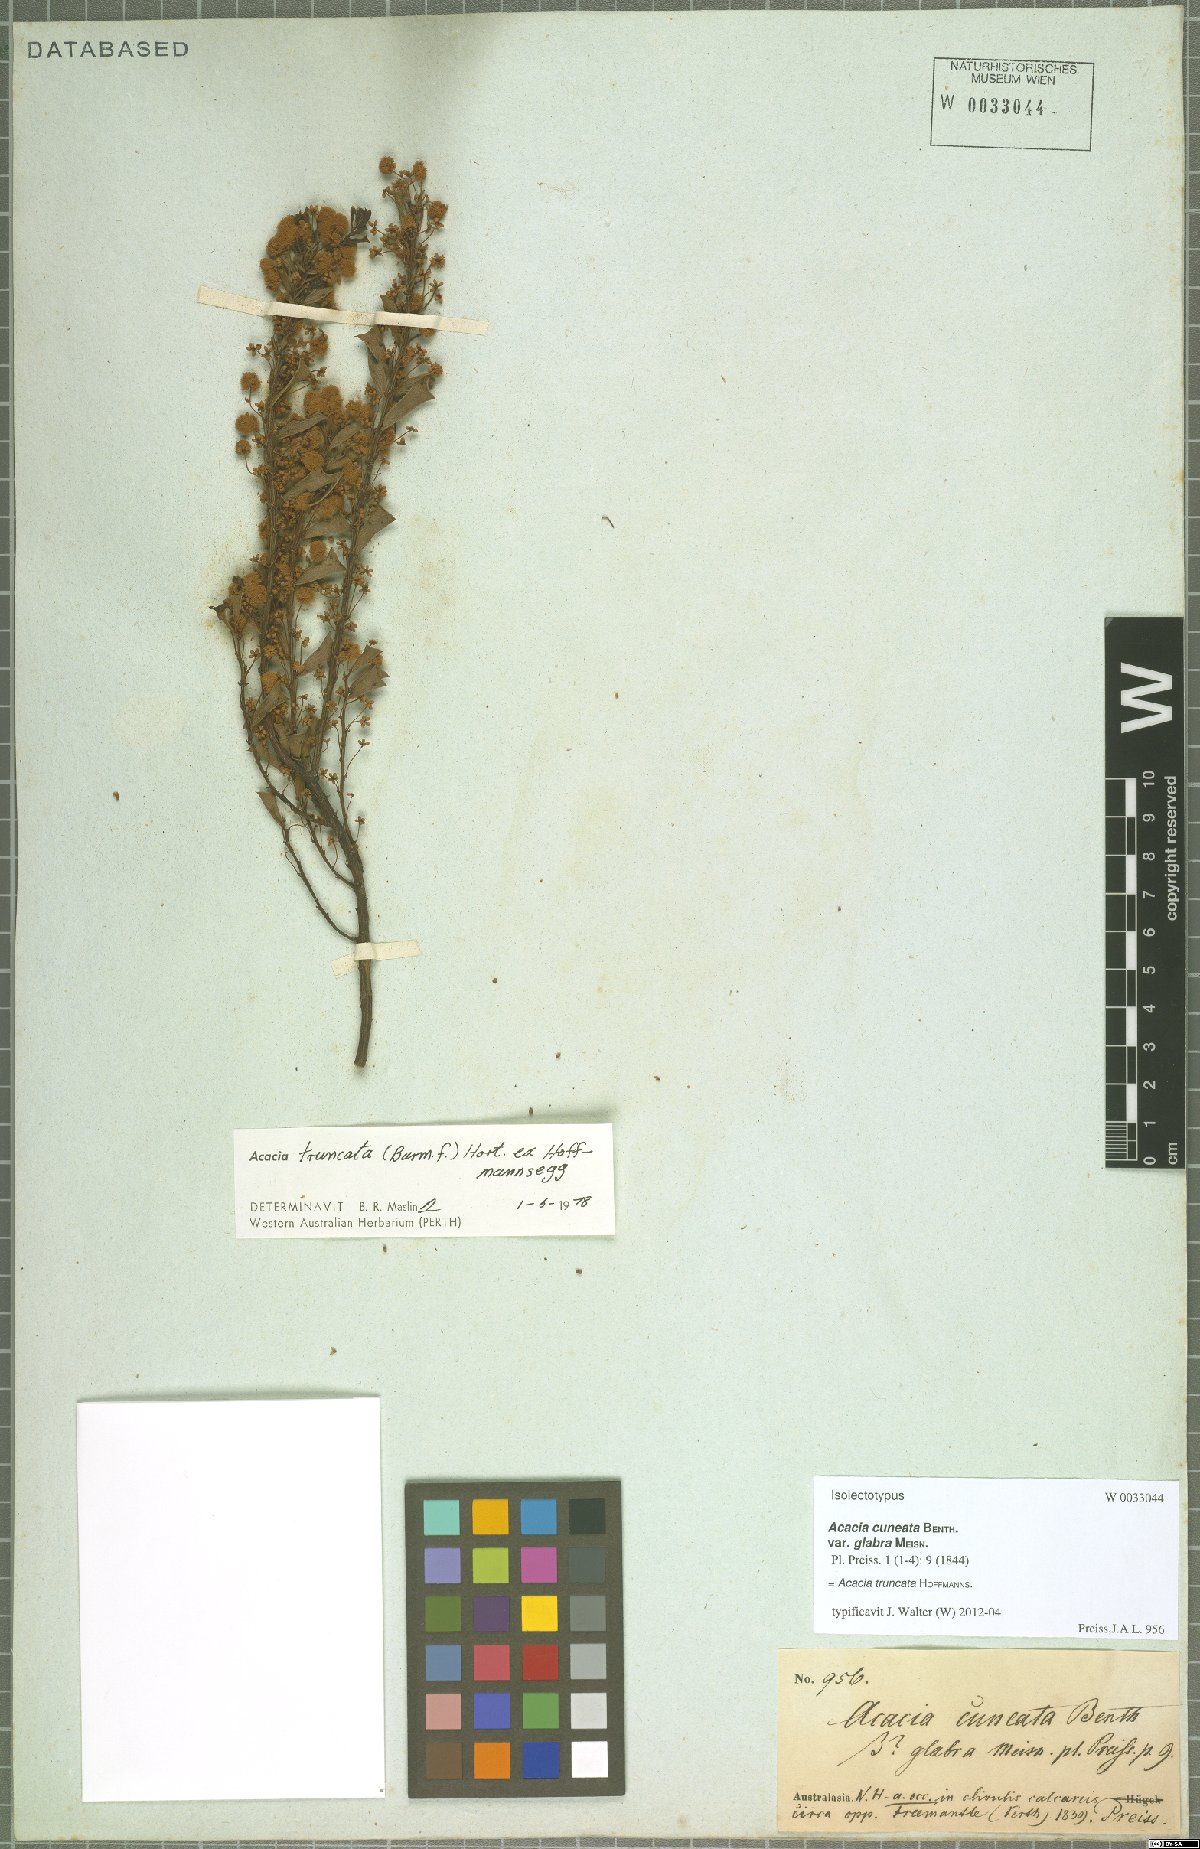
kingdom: Plantae
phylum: Tracheophyta
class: Magnoliopsida
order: Fabales
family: Fabaceae
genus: Acacia
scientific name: Acacia truncata
